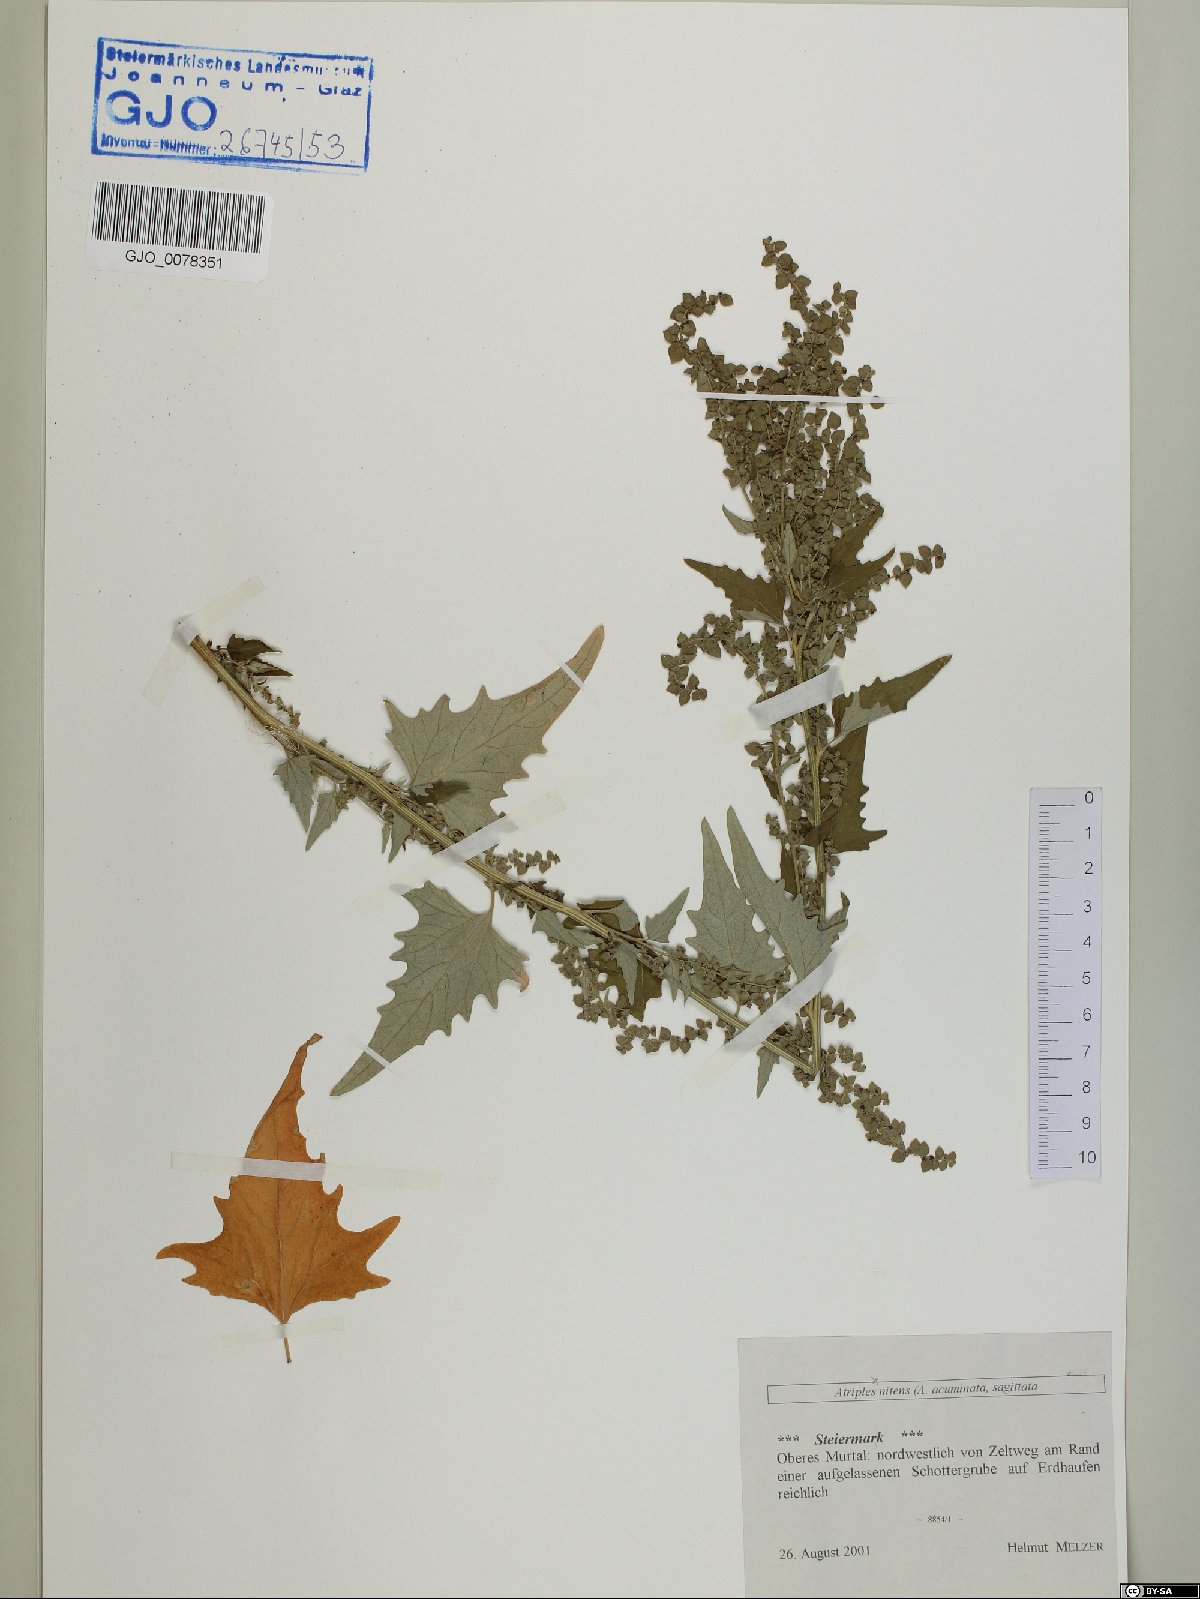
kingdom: Plantae
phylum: Tracheophyta
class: Magnoliopsida
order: Caryophyllales
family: Amaranthaceae
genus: Atriplex
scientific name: Atriplex sagittata
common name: Purple orache
